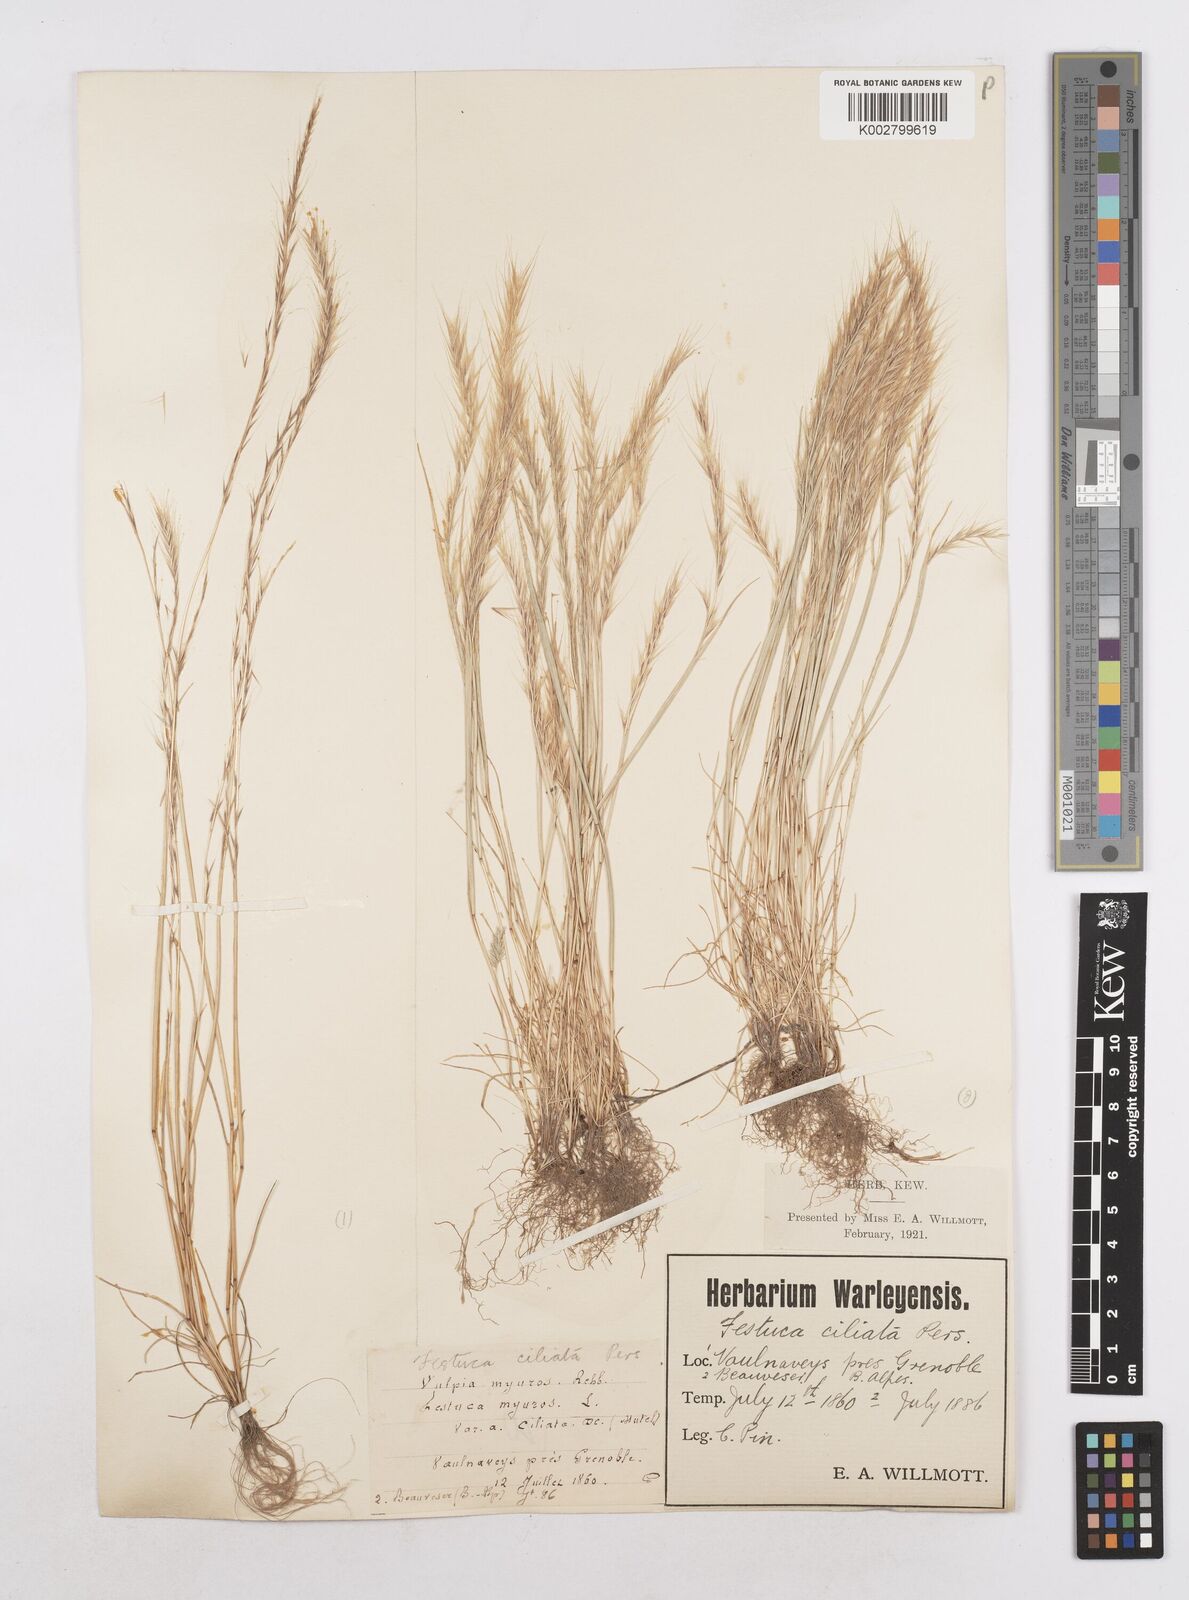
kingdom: Plantae
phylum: Tracheophyta
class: Liliopsida
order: Poales
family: Poaceae
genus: Festuca
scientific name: Festuca
